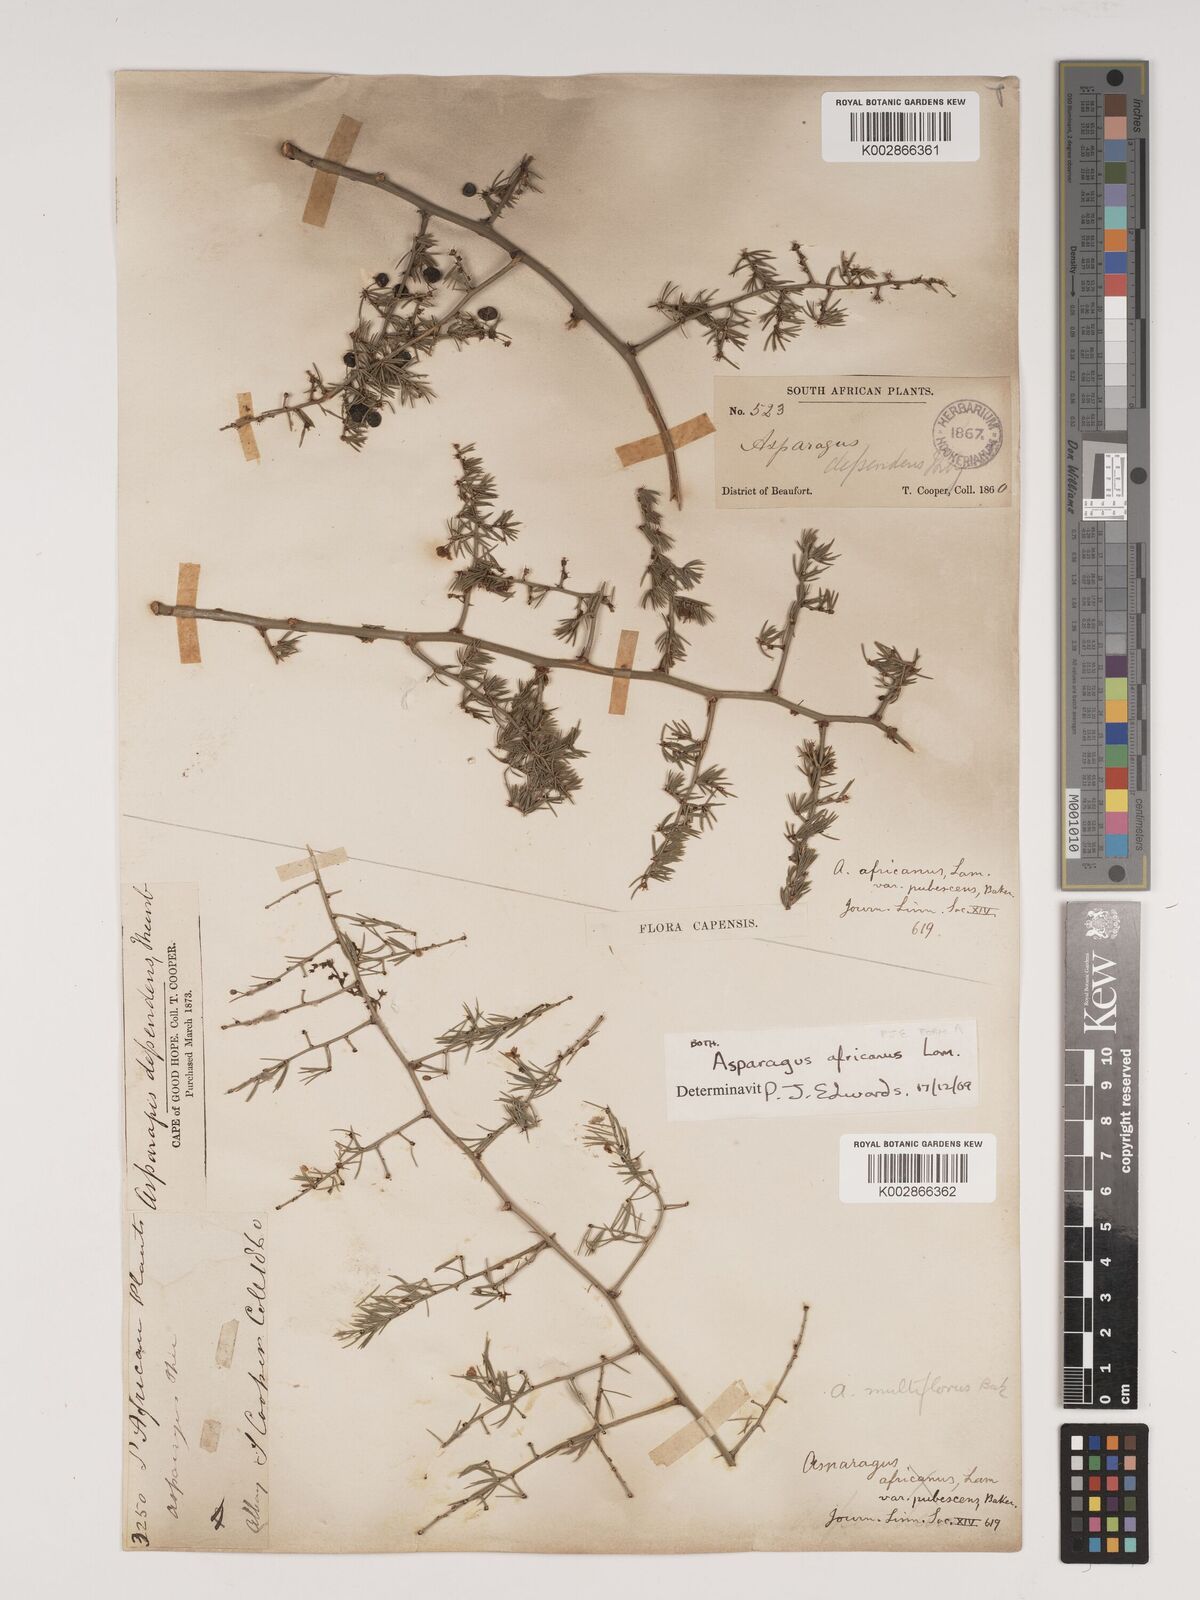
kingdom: Plantae
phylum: Tracheophyta
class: Liliopsida
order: Asparagales
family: Asparagaceae
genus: Asparagus
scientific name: Asparagus africanus
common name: Asparagus-fern
